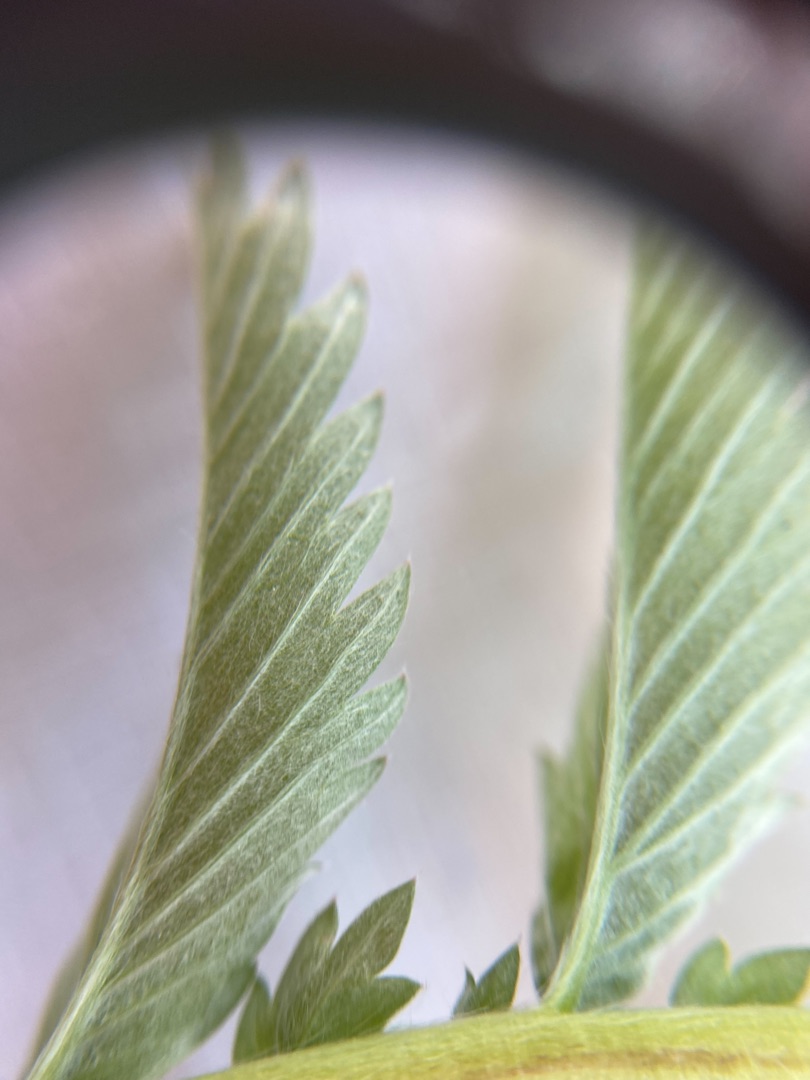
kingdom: Plantae
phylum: Tracheophyta
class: Magnoliopsida
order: Rosales
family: Rosaceae
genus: Argentina
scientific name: Argentina anserina
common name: Gåsepotentil
